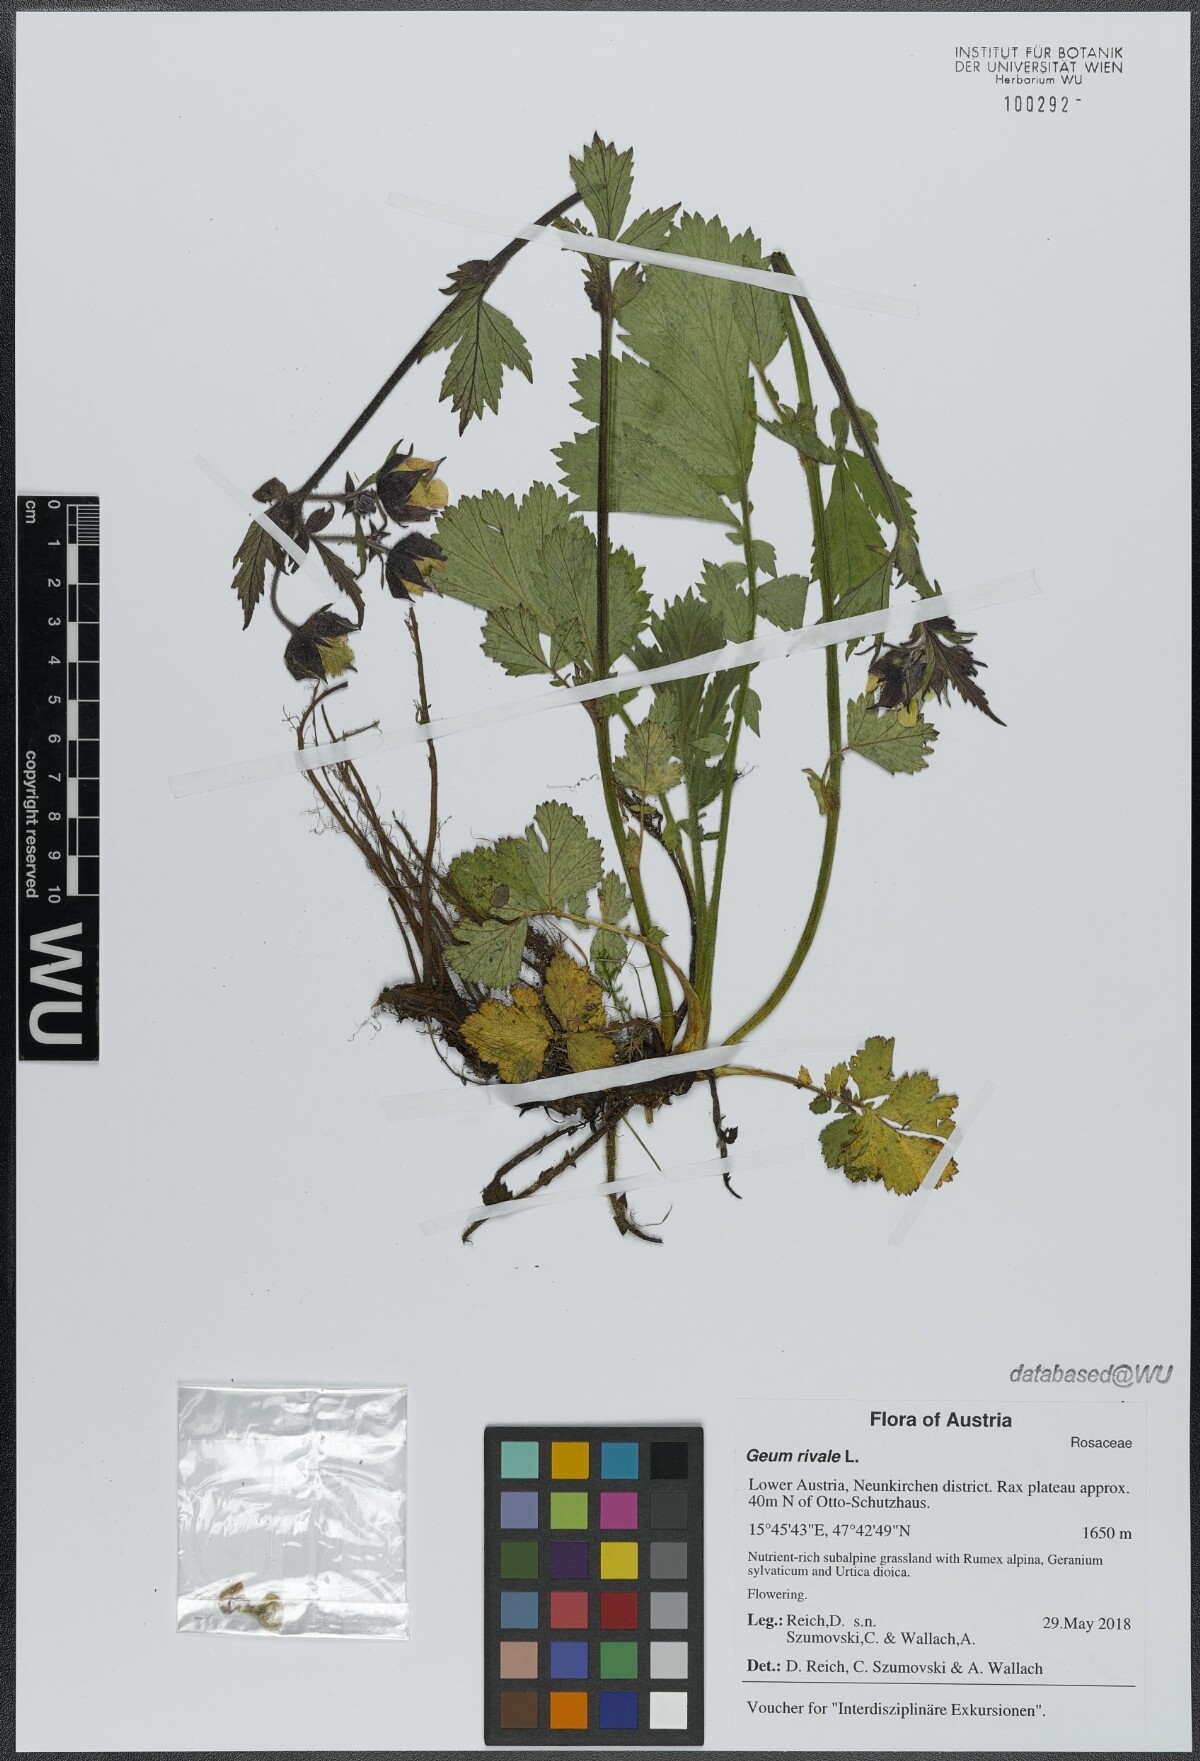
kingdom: Plantae
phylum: Tracheophyta
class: Magnoliopsida
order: Rosales
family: Rosaceae
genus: Geum
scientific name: Geum rivale
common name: Water avens
